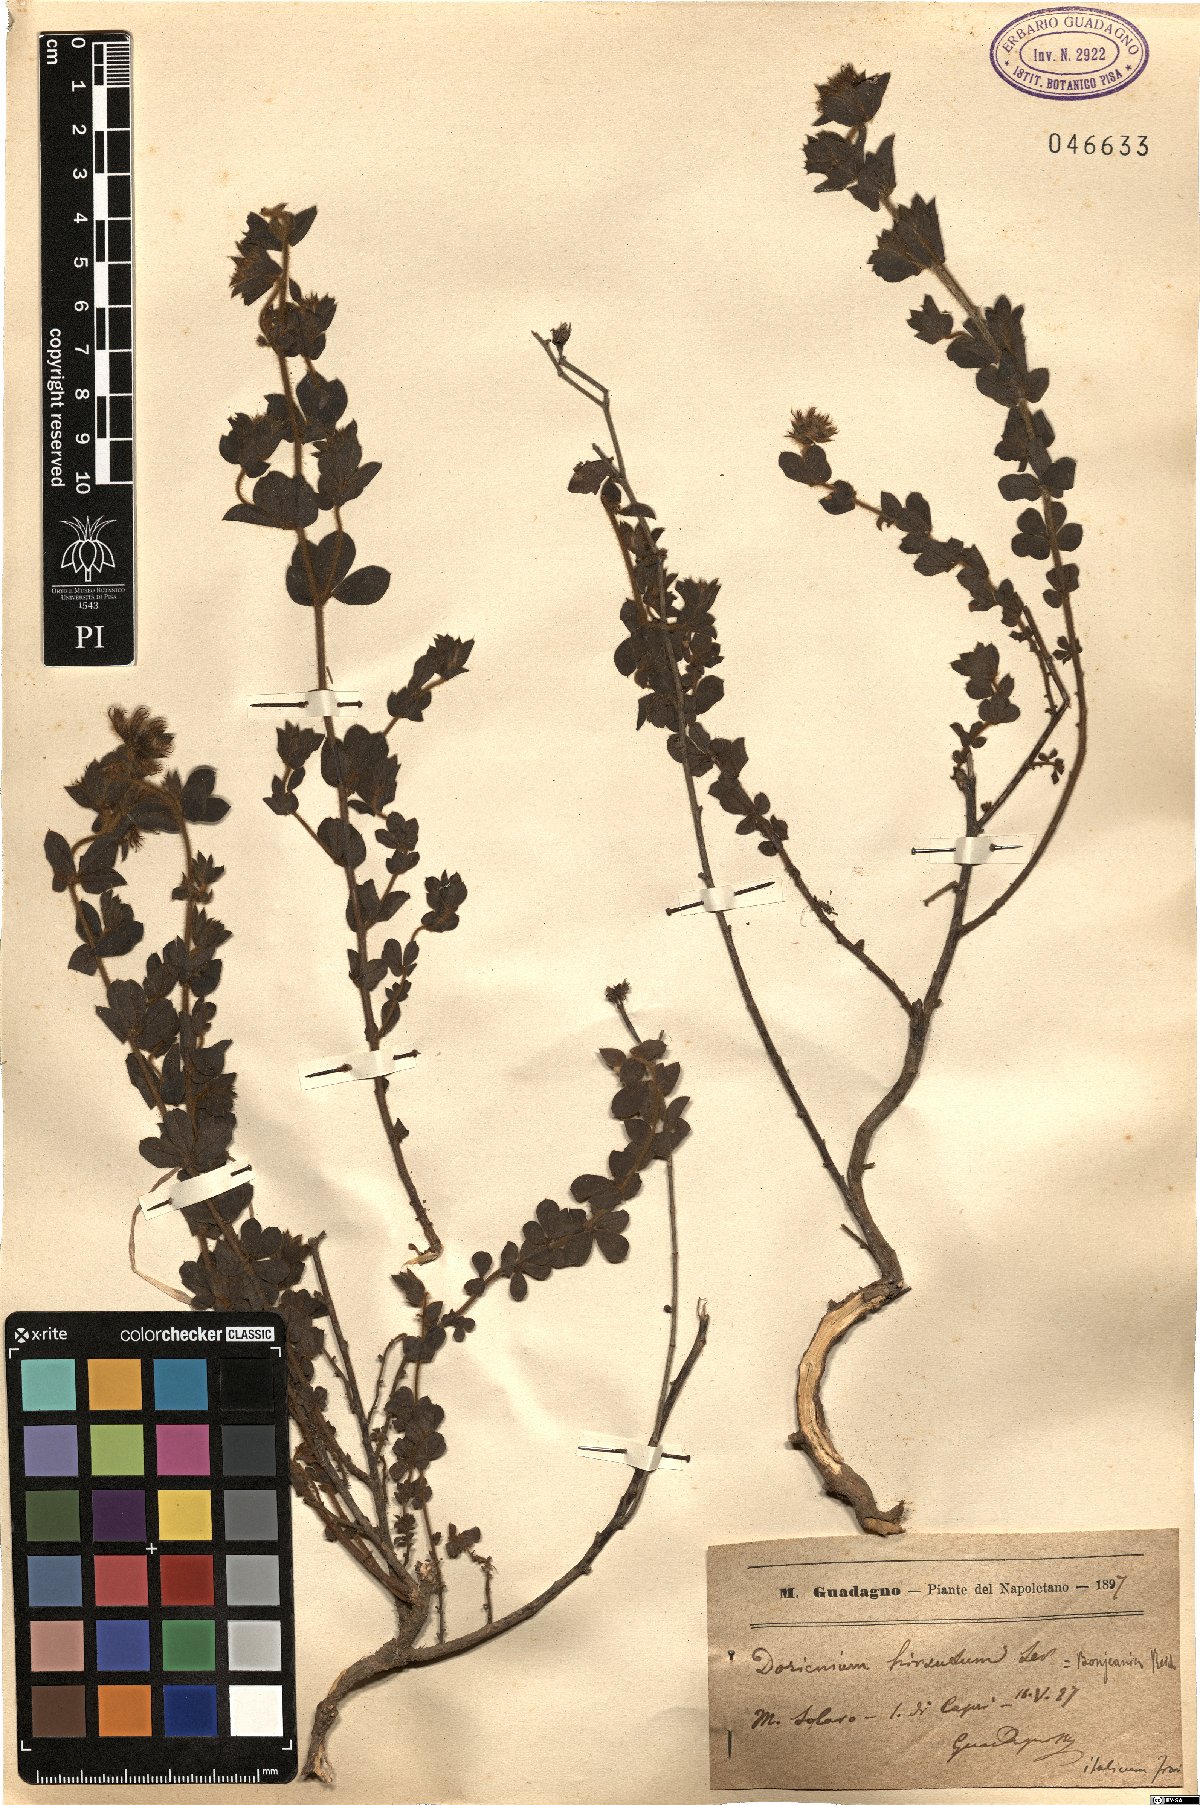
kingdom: Plantae
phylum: Tracheophyta
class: Magnoliopsida
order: Fabales
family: Fabaceae
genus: Lotus
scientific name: Lotus hirsutus
